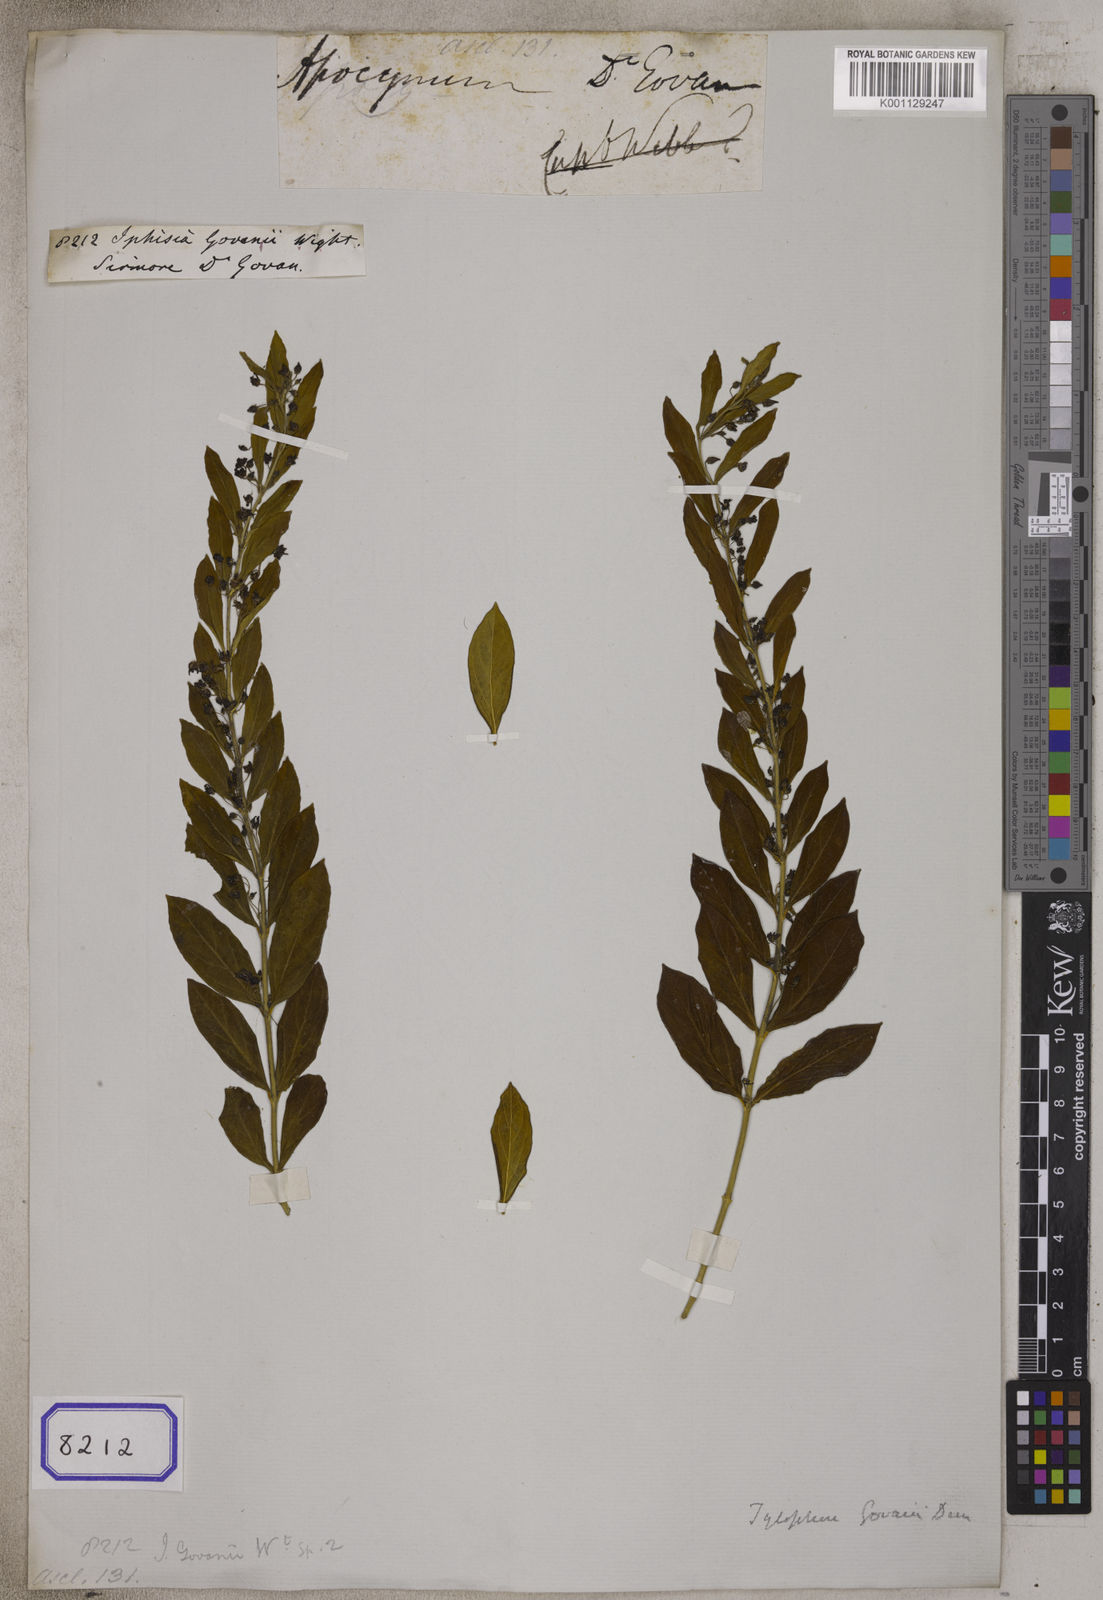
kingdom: Plantae
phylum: Tracheophyta
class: Magnoliopsida
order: Gentianales
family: Apocynaceae
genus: Vincetoxicum
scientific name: Vincetoxicum govanii
